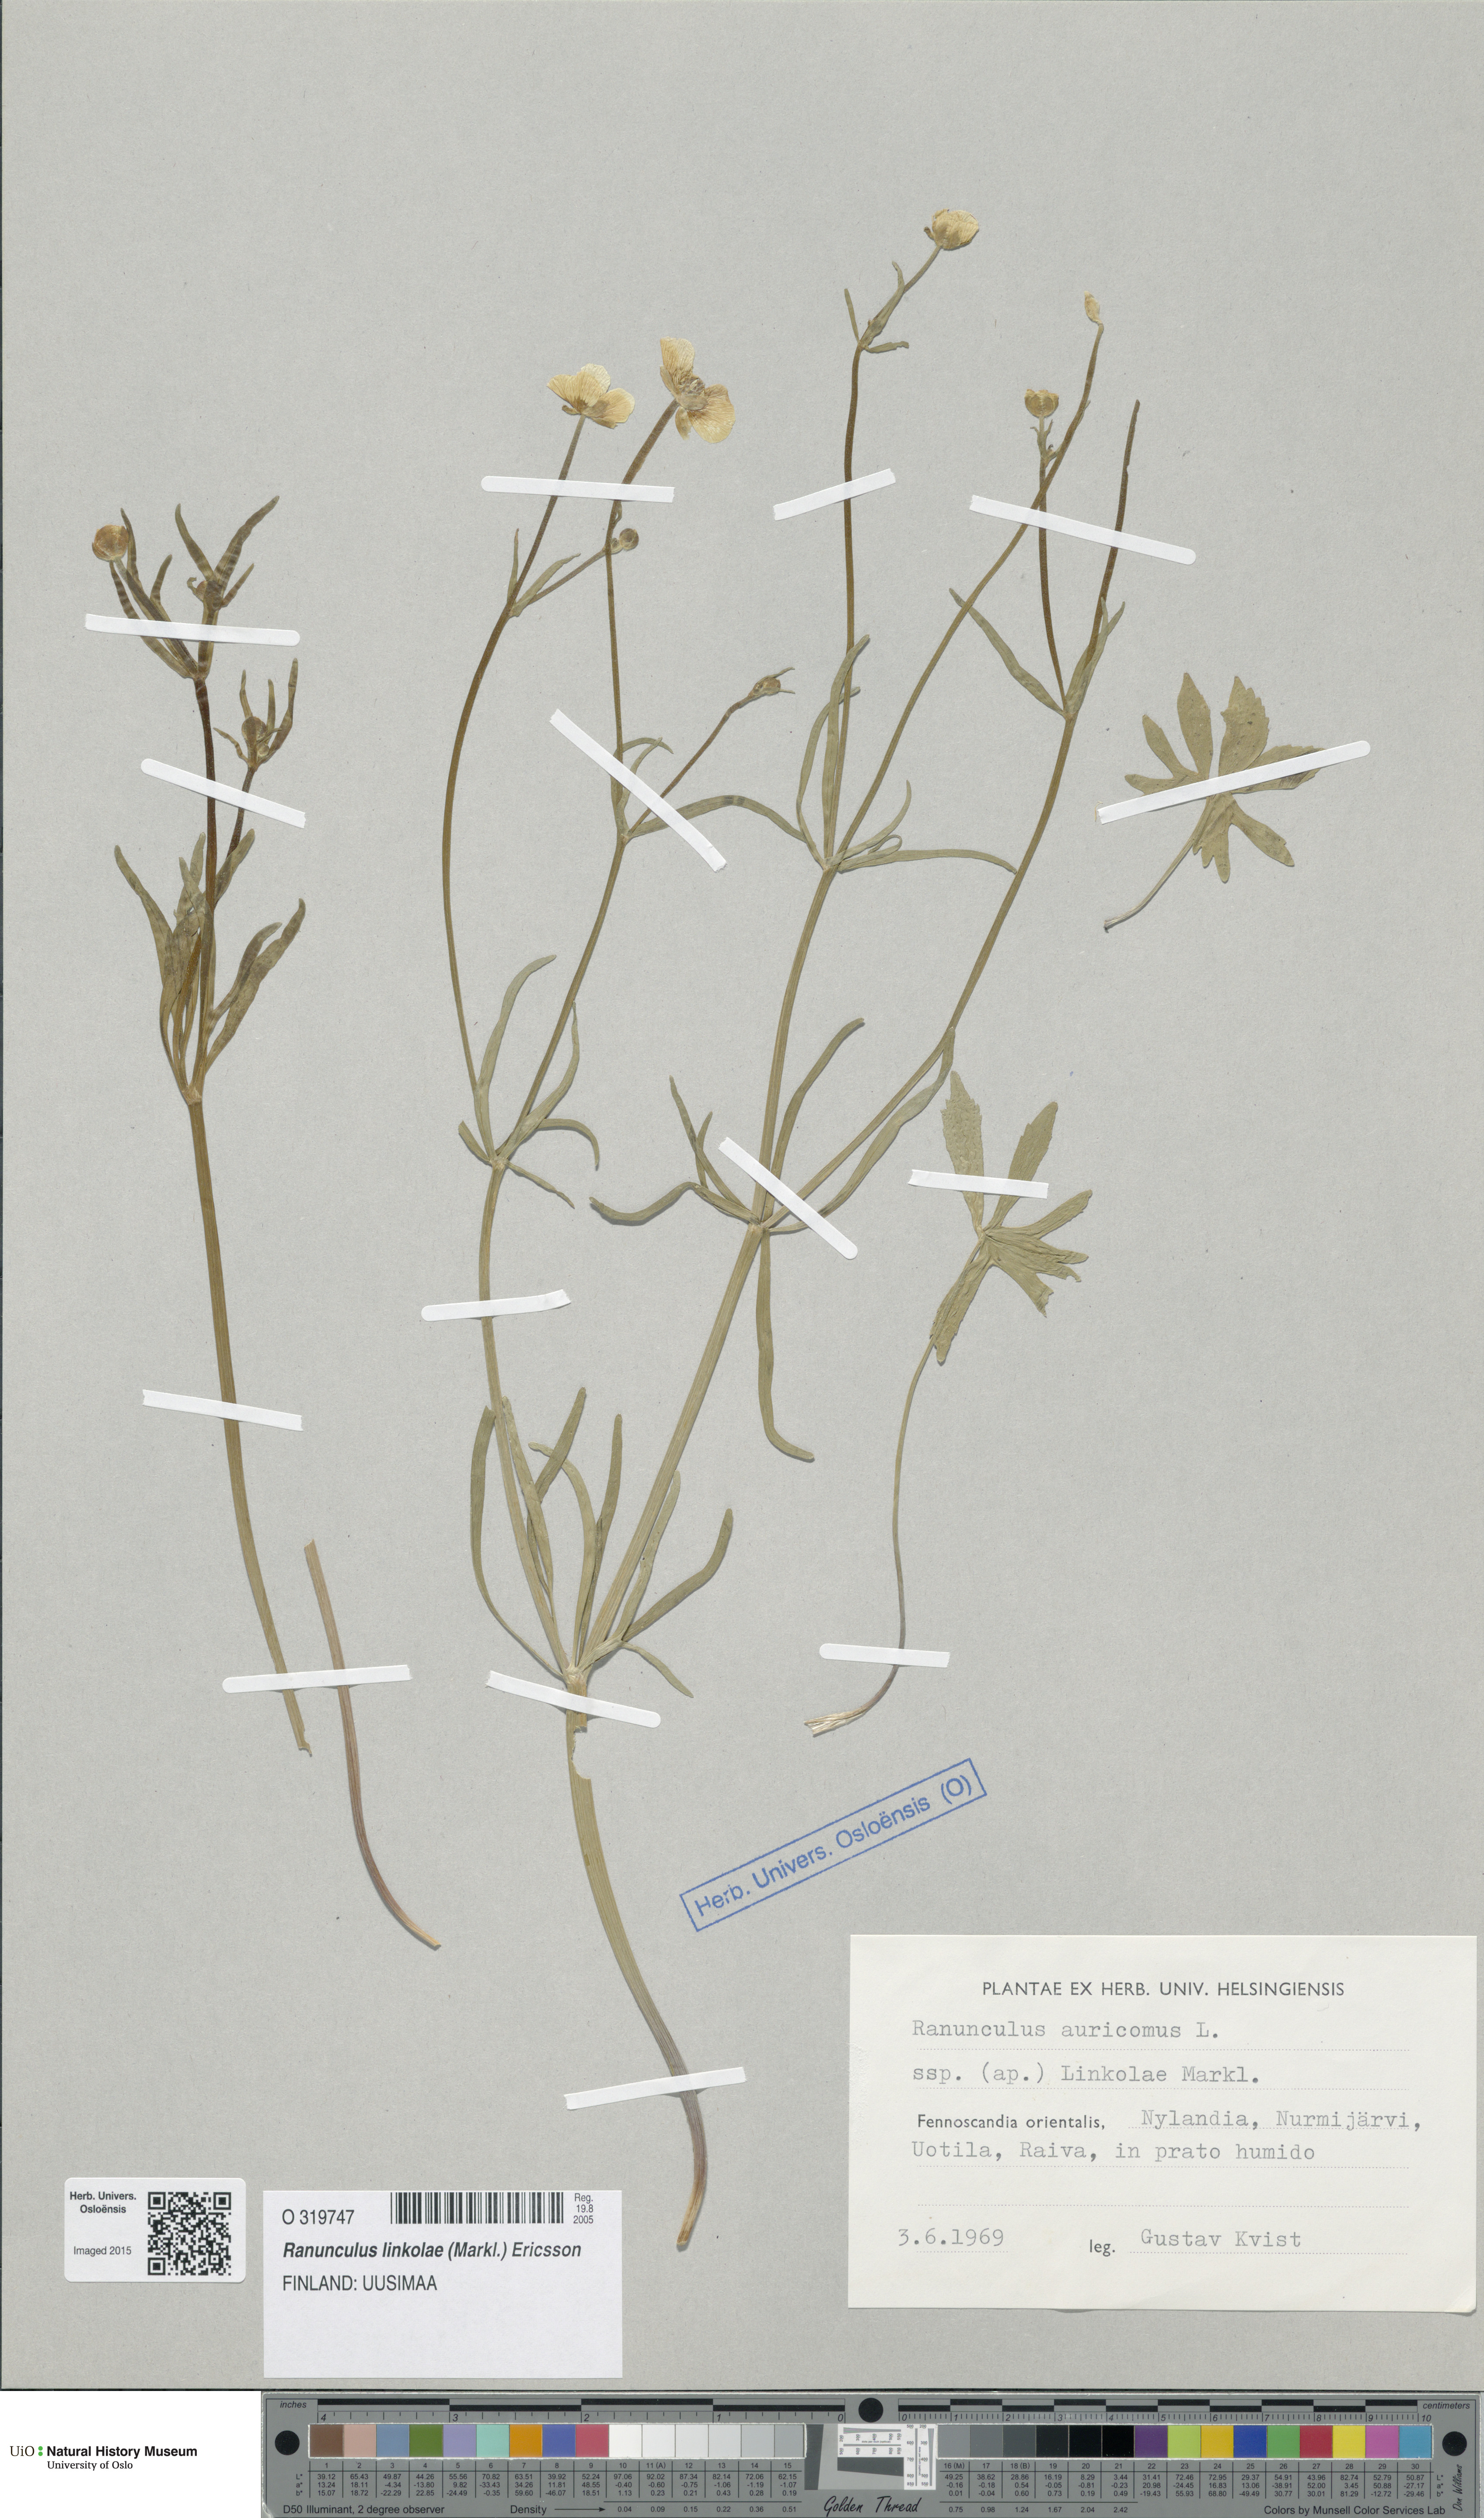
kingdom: Plantae
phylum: Tracheophyta
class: Magnoliopsida
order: Ranunculales
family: Ranunculaceae
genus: Ranunculus
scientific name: Ranunculus linkolae
